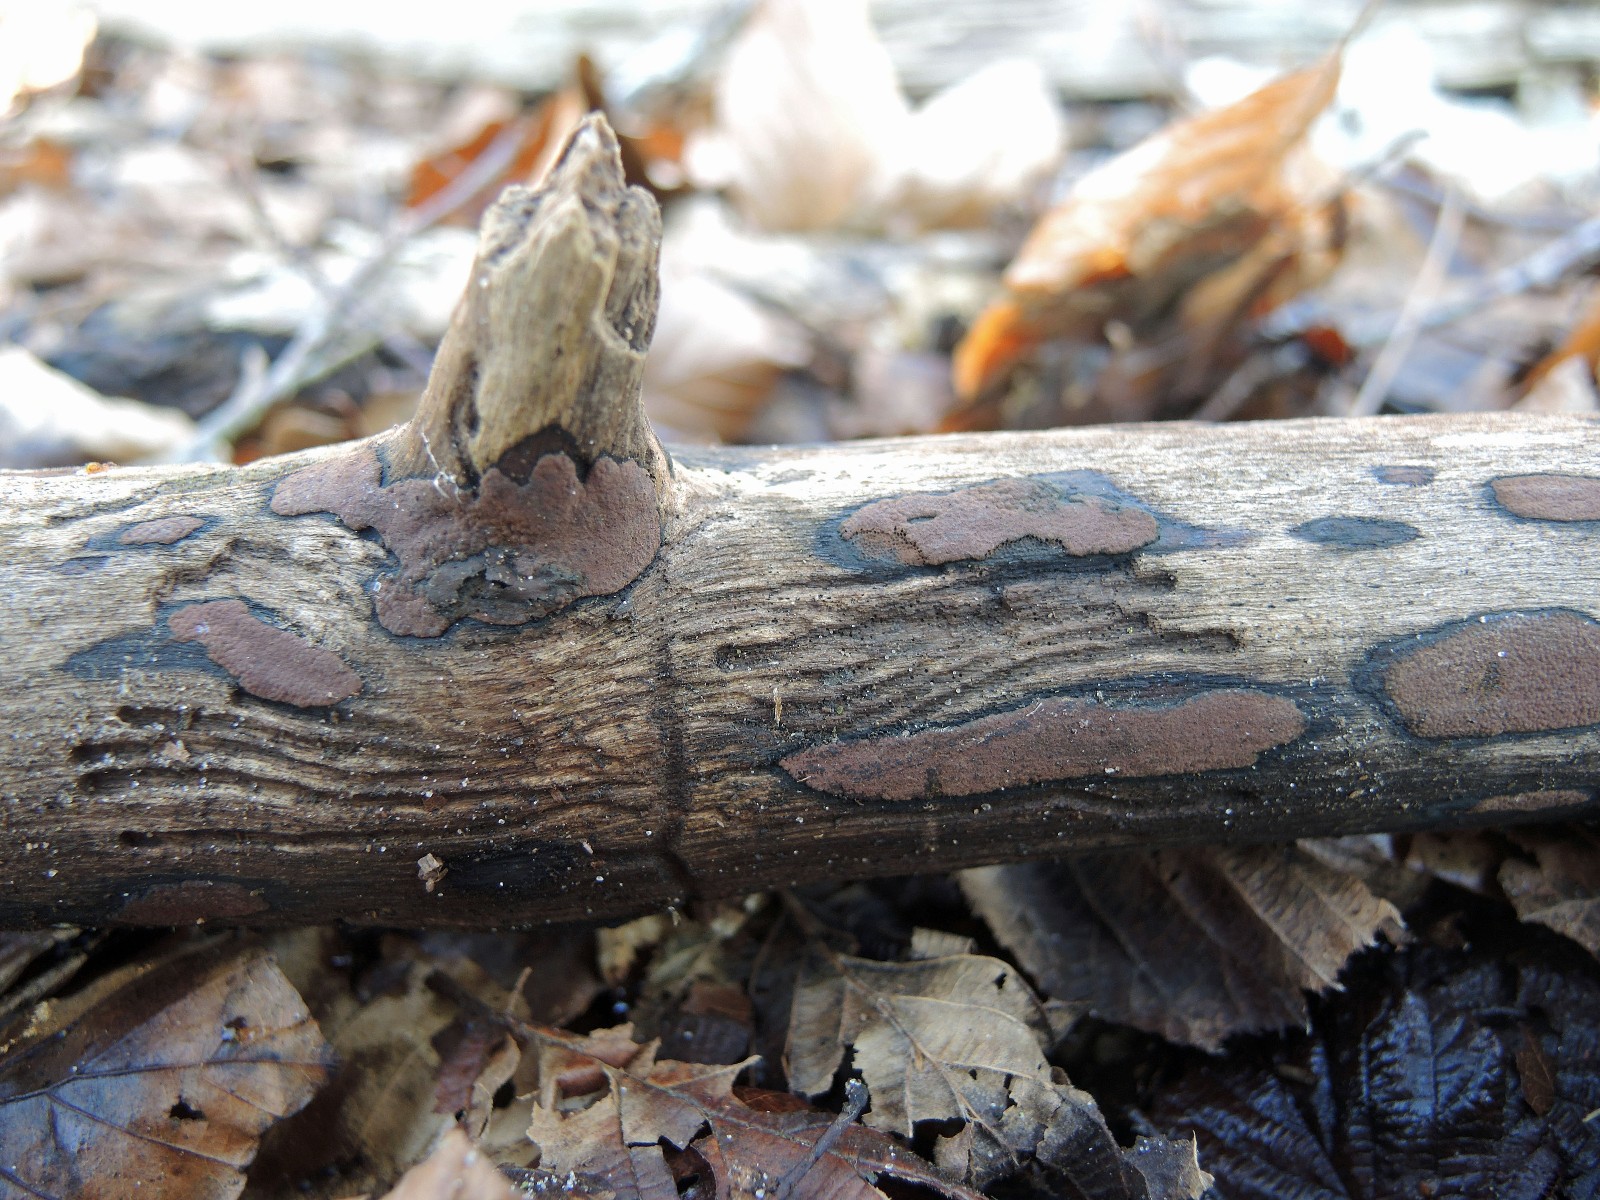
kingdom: Fungi
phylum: Ascomycota
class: Sordariomycetes
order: Xylariales
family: Hypoxylaceae
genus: Hypoxylon
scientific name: Hypoxylon petriniae
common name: nedsænket kulbær
